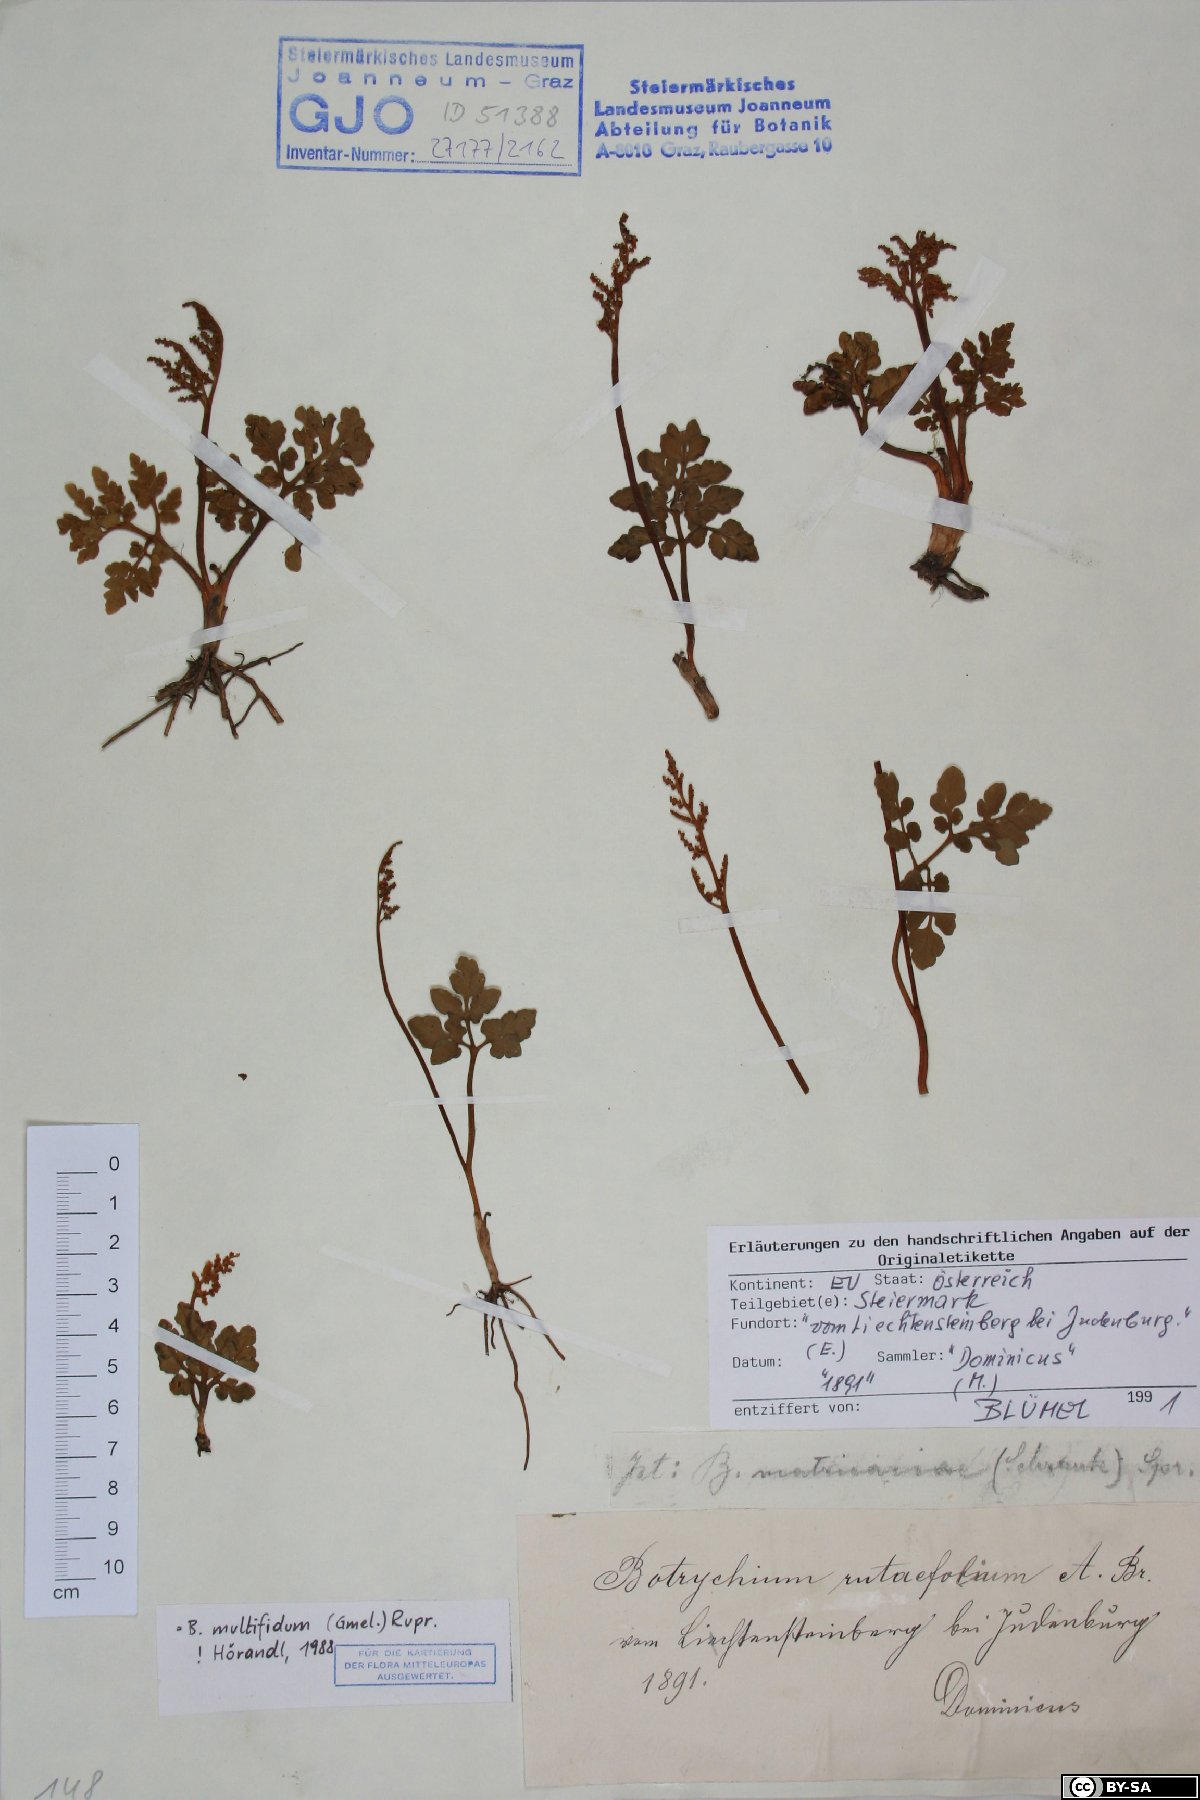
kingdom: Plantae
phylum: Tracheophyta
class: Polypodiopsida
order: Ophioglossales
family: Ophioglossaceae
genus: Sceptridium
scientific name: Sceptridium multifidum
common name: Leathery grape fern
